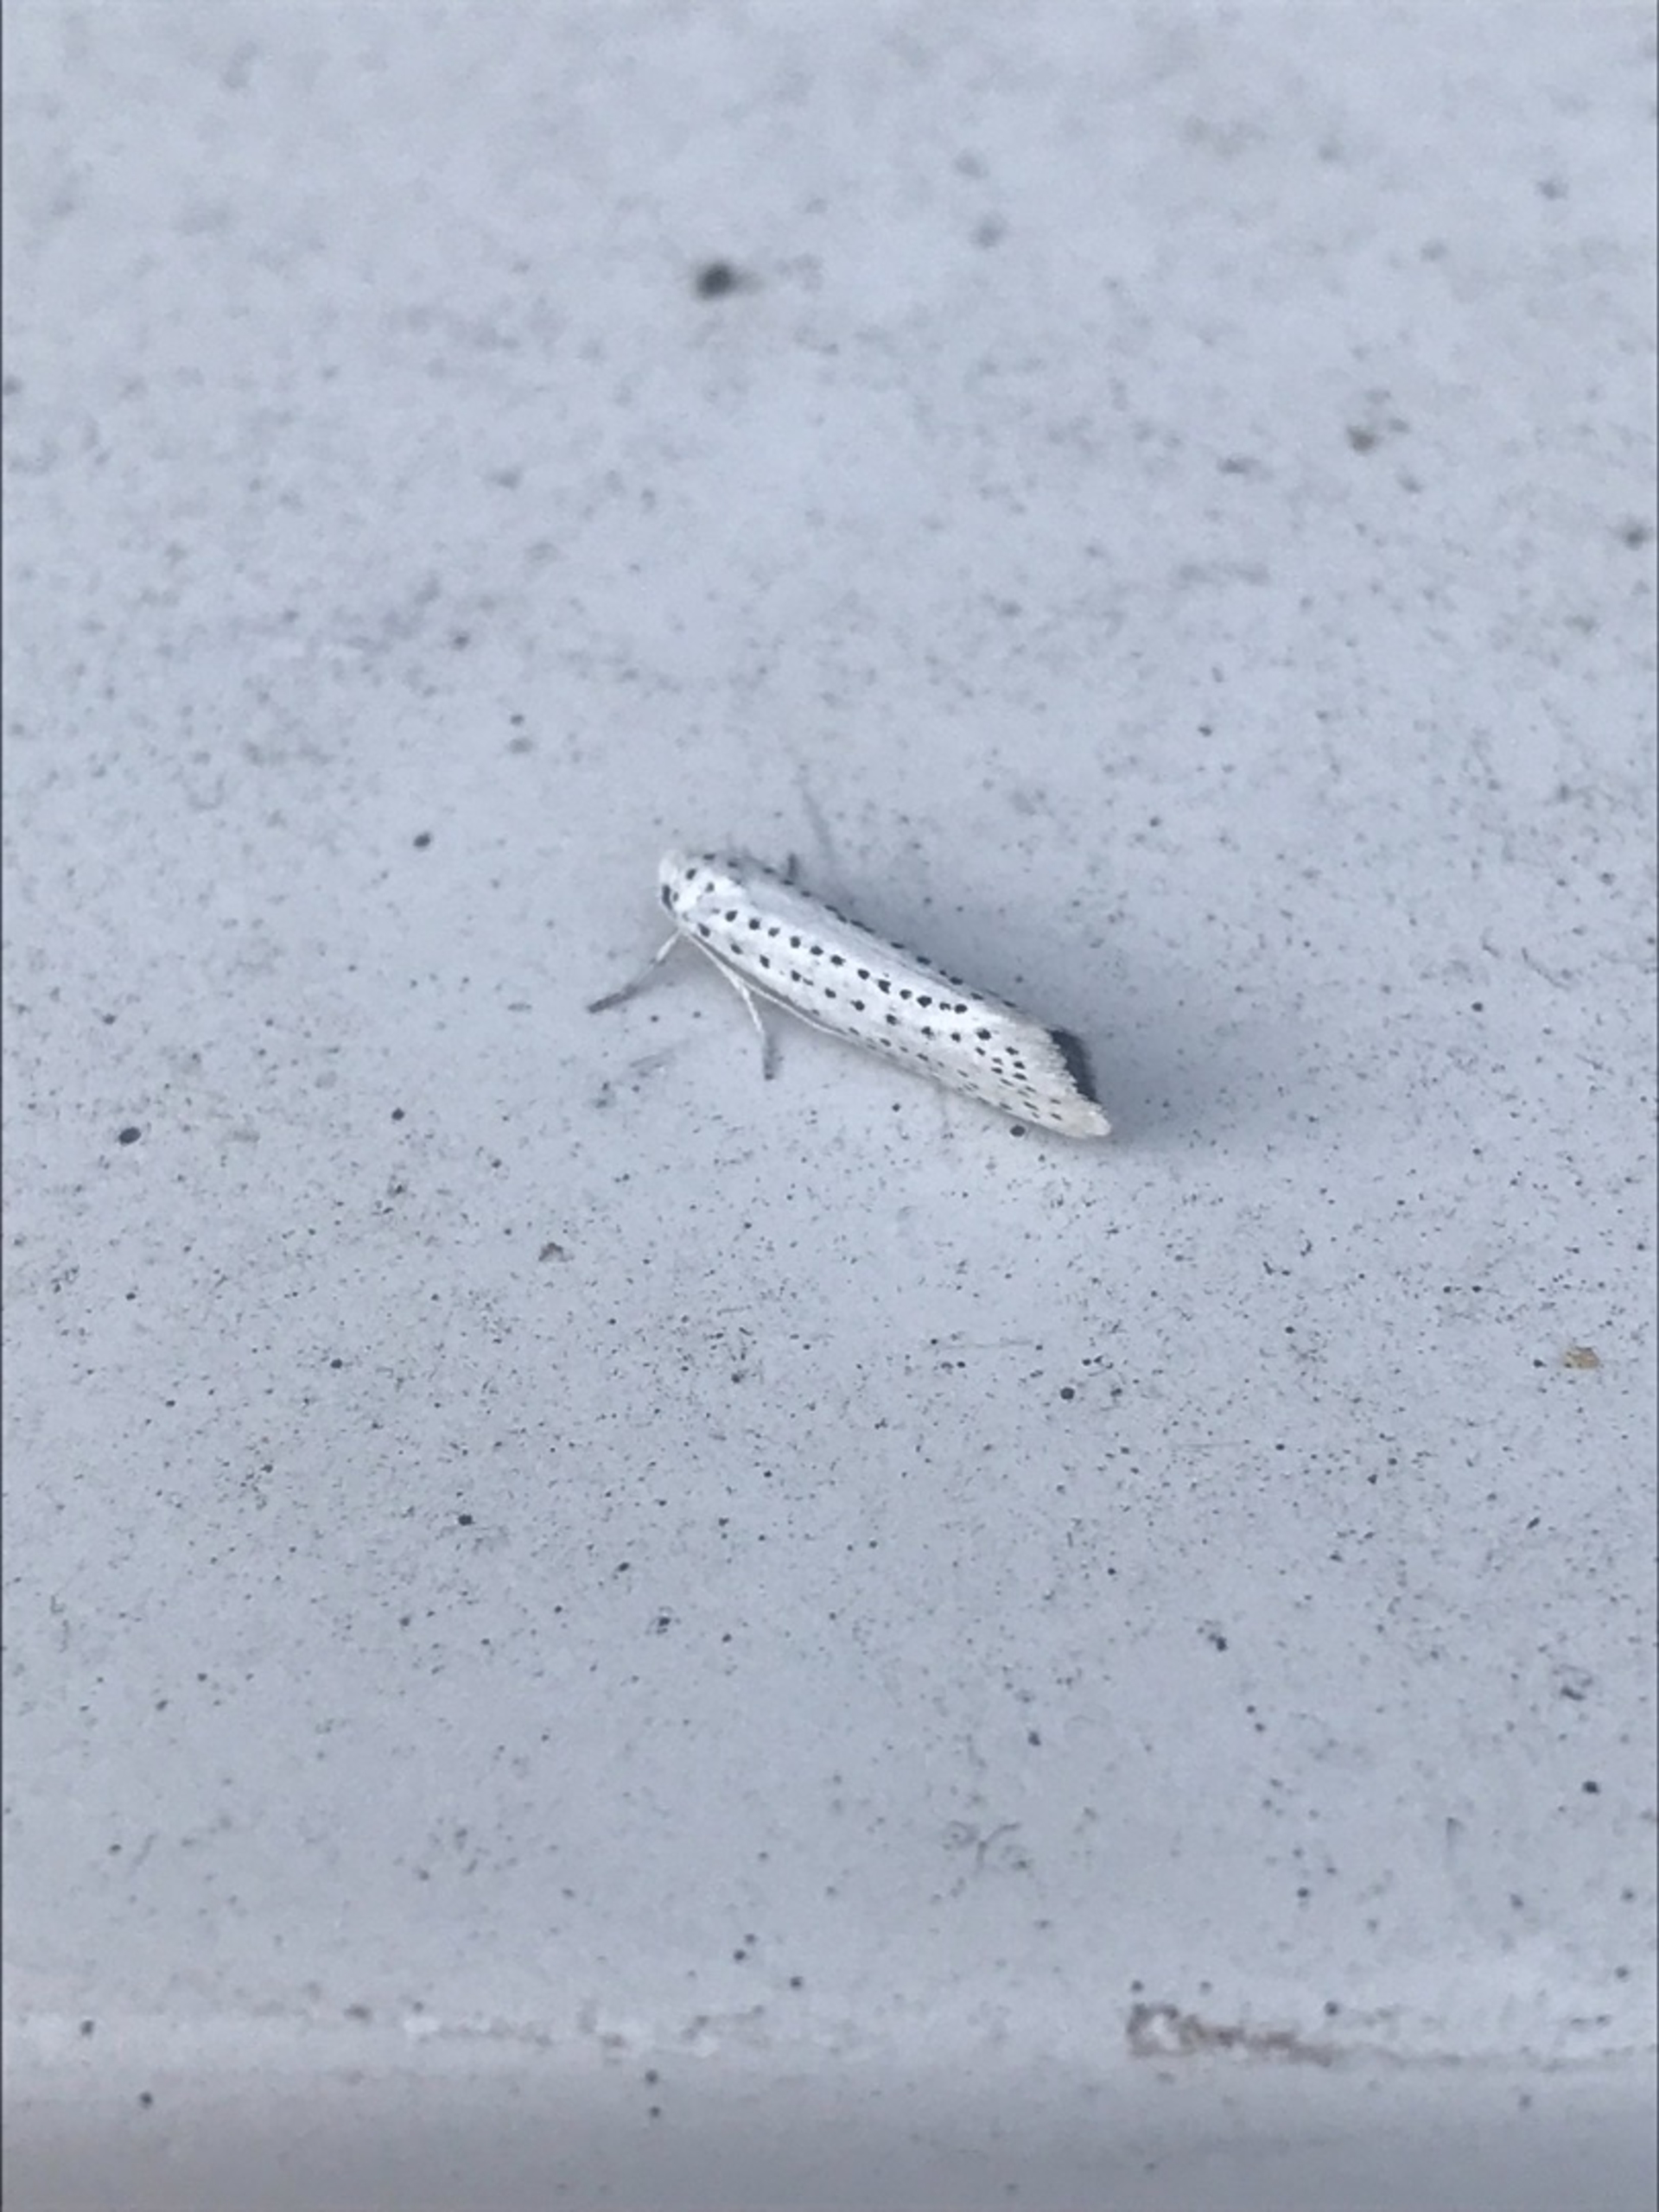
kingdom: Animalia
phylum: Arthropoda
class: Insecta
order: Lepidoptera
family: Yponomeutidae
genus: Yponomeuta
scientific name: Yponomeuta evonymella
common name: Hægspindemøl
